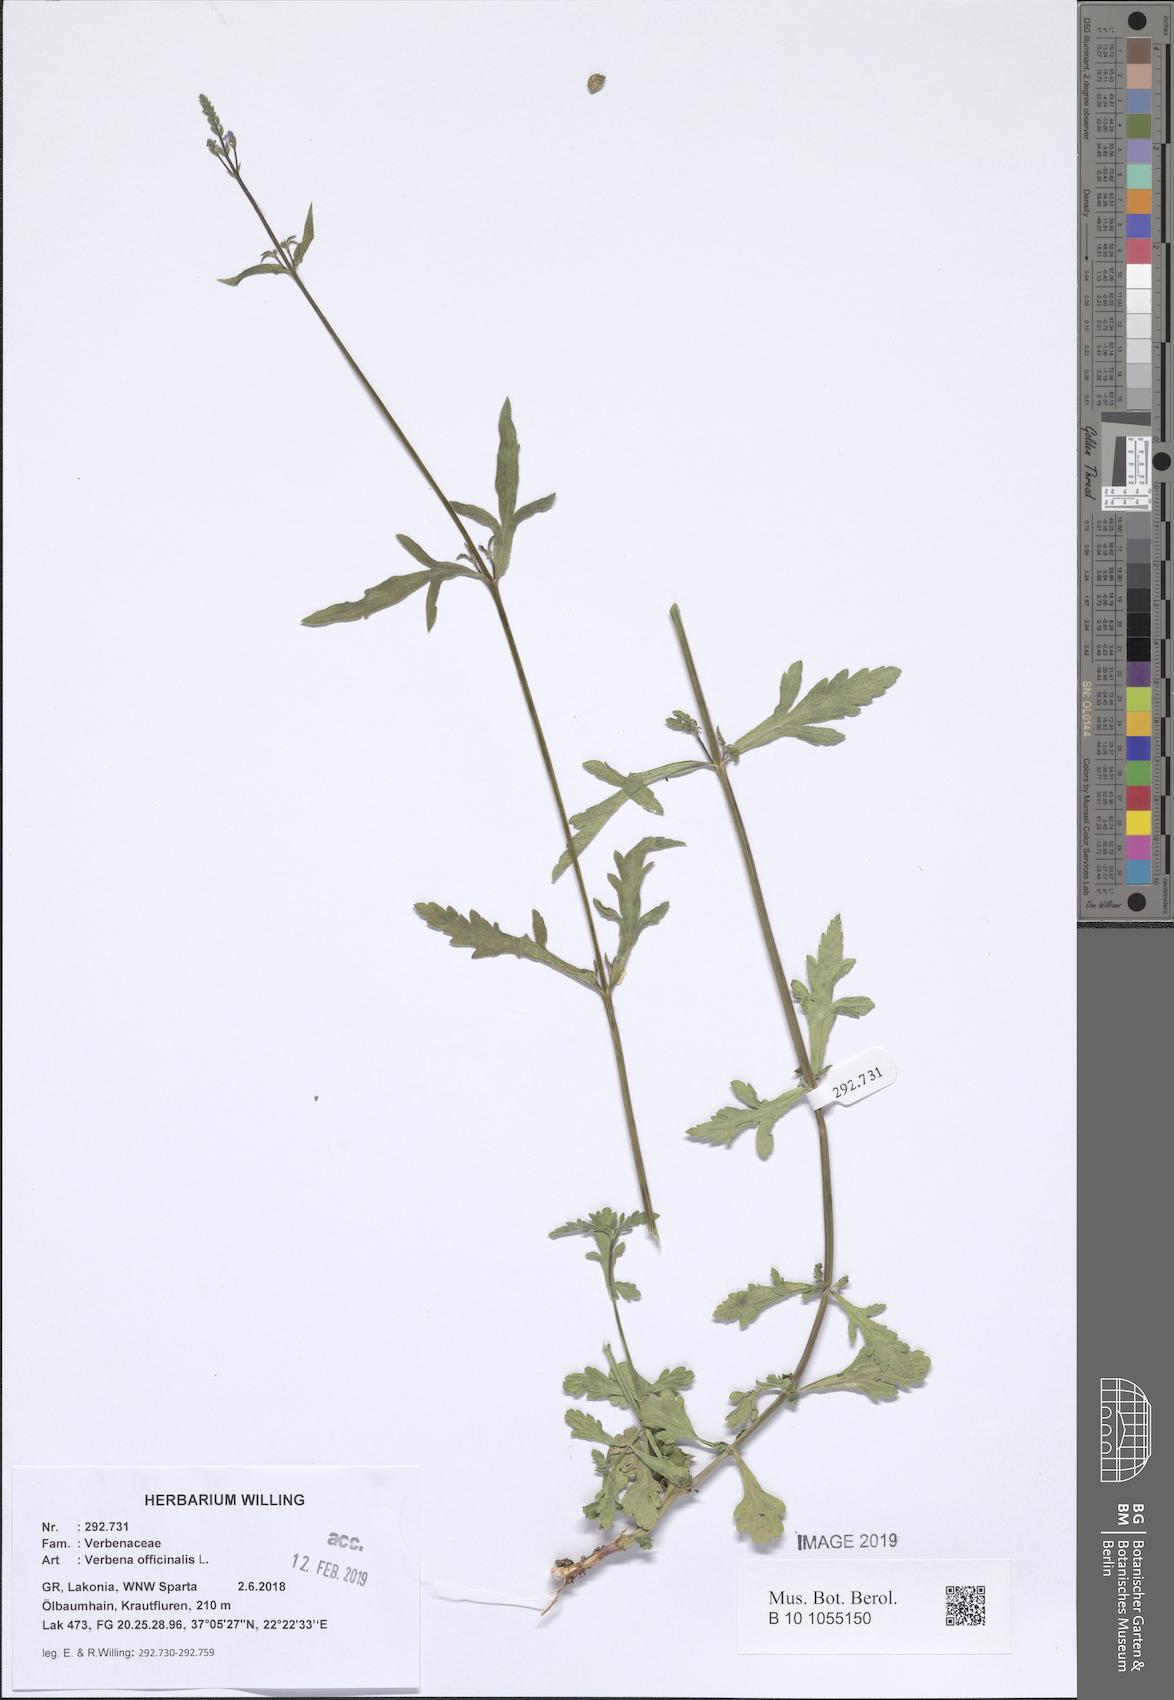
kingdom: Plantae
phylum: Tracheophyta
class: Magnoliopsida
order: Lamiales
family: Verbenaceae
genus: Verbena
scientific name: Verbena officinalis
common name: Vervain
